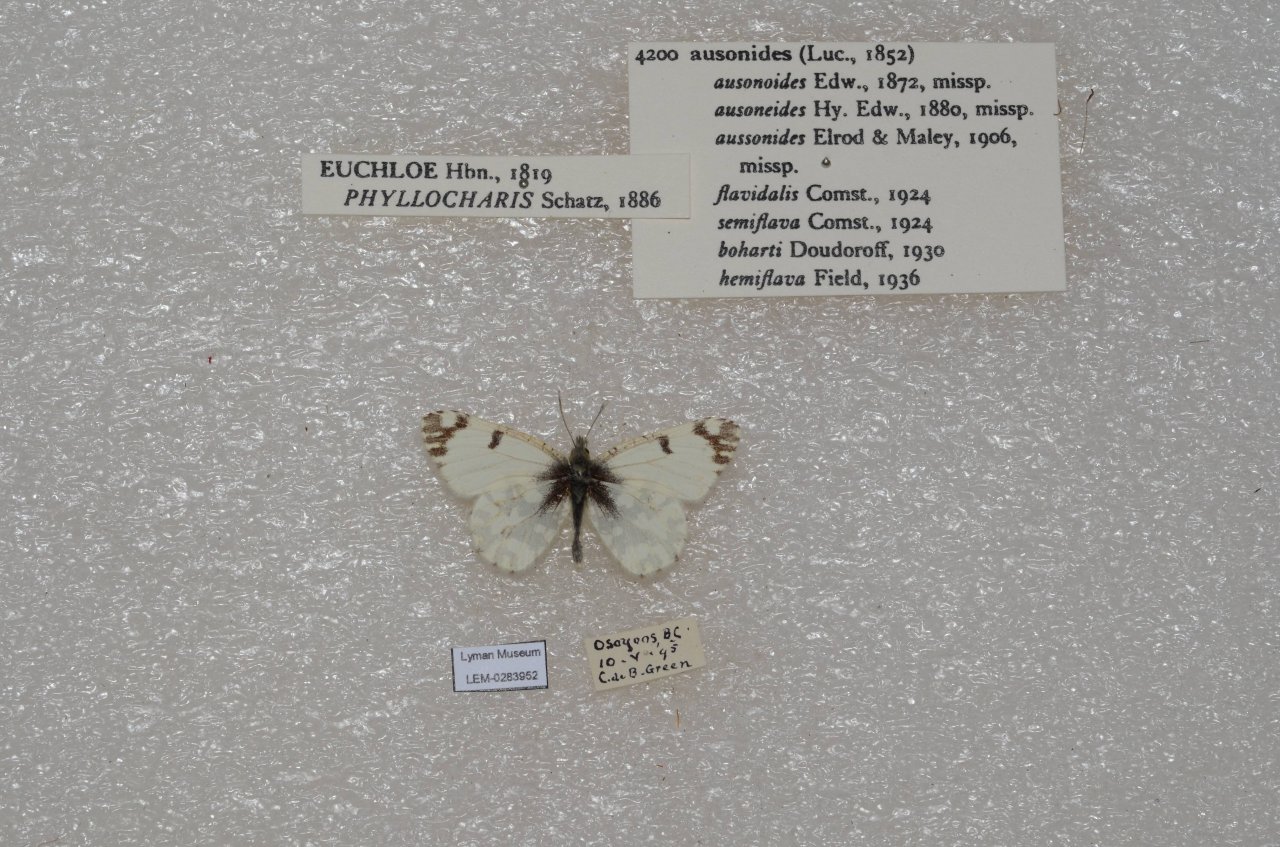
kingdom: Animalia
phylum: Arthropoda
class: Insecta
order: Lepidoptera
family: Pieridae
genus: Euchloe
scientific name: Euchloe ausonides
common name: Large Marble
